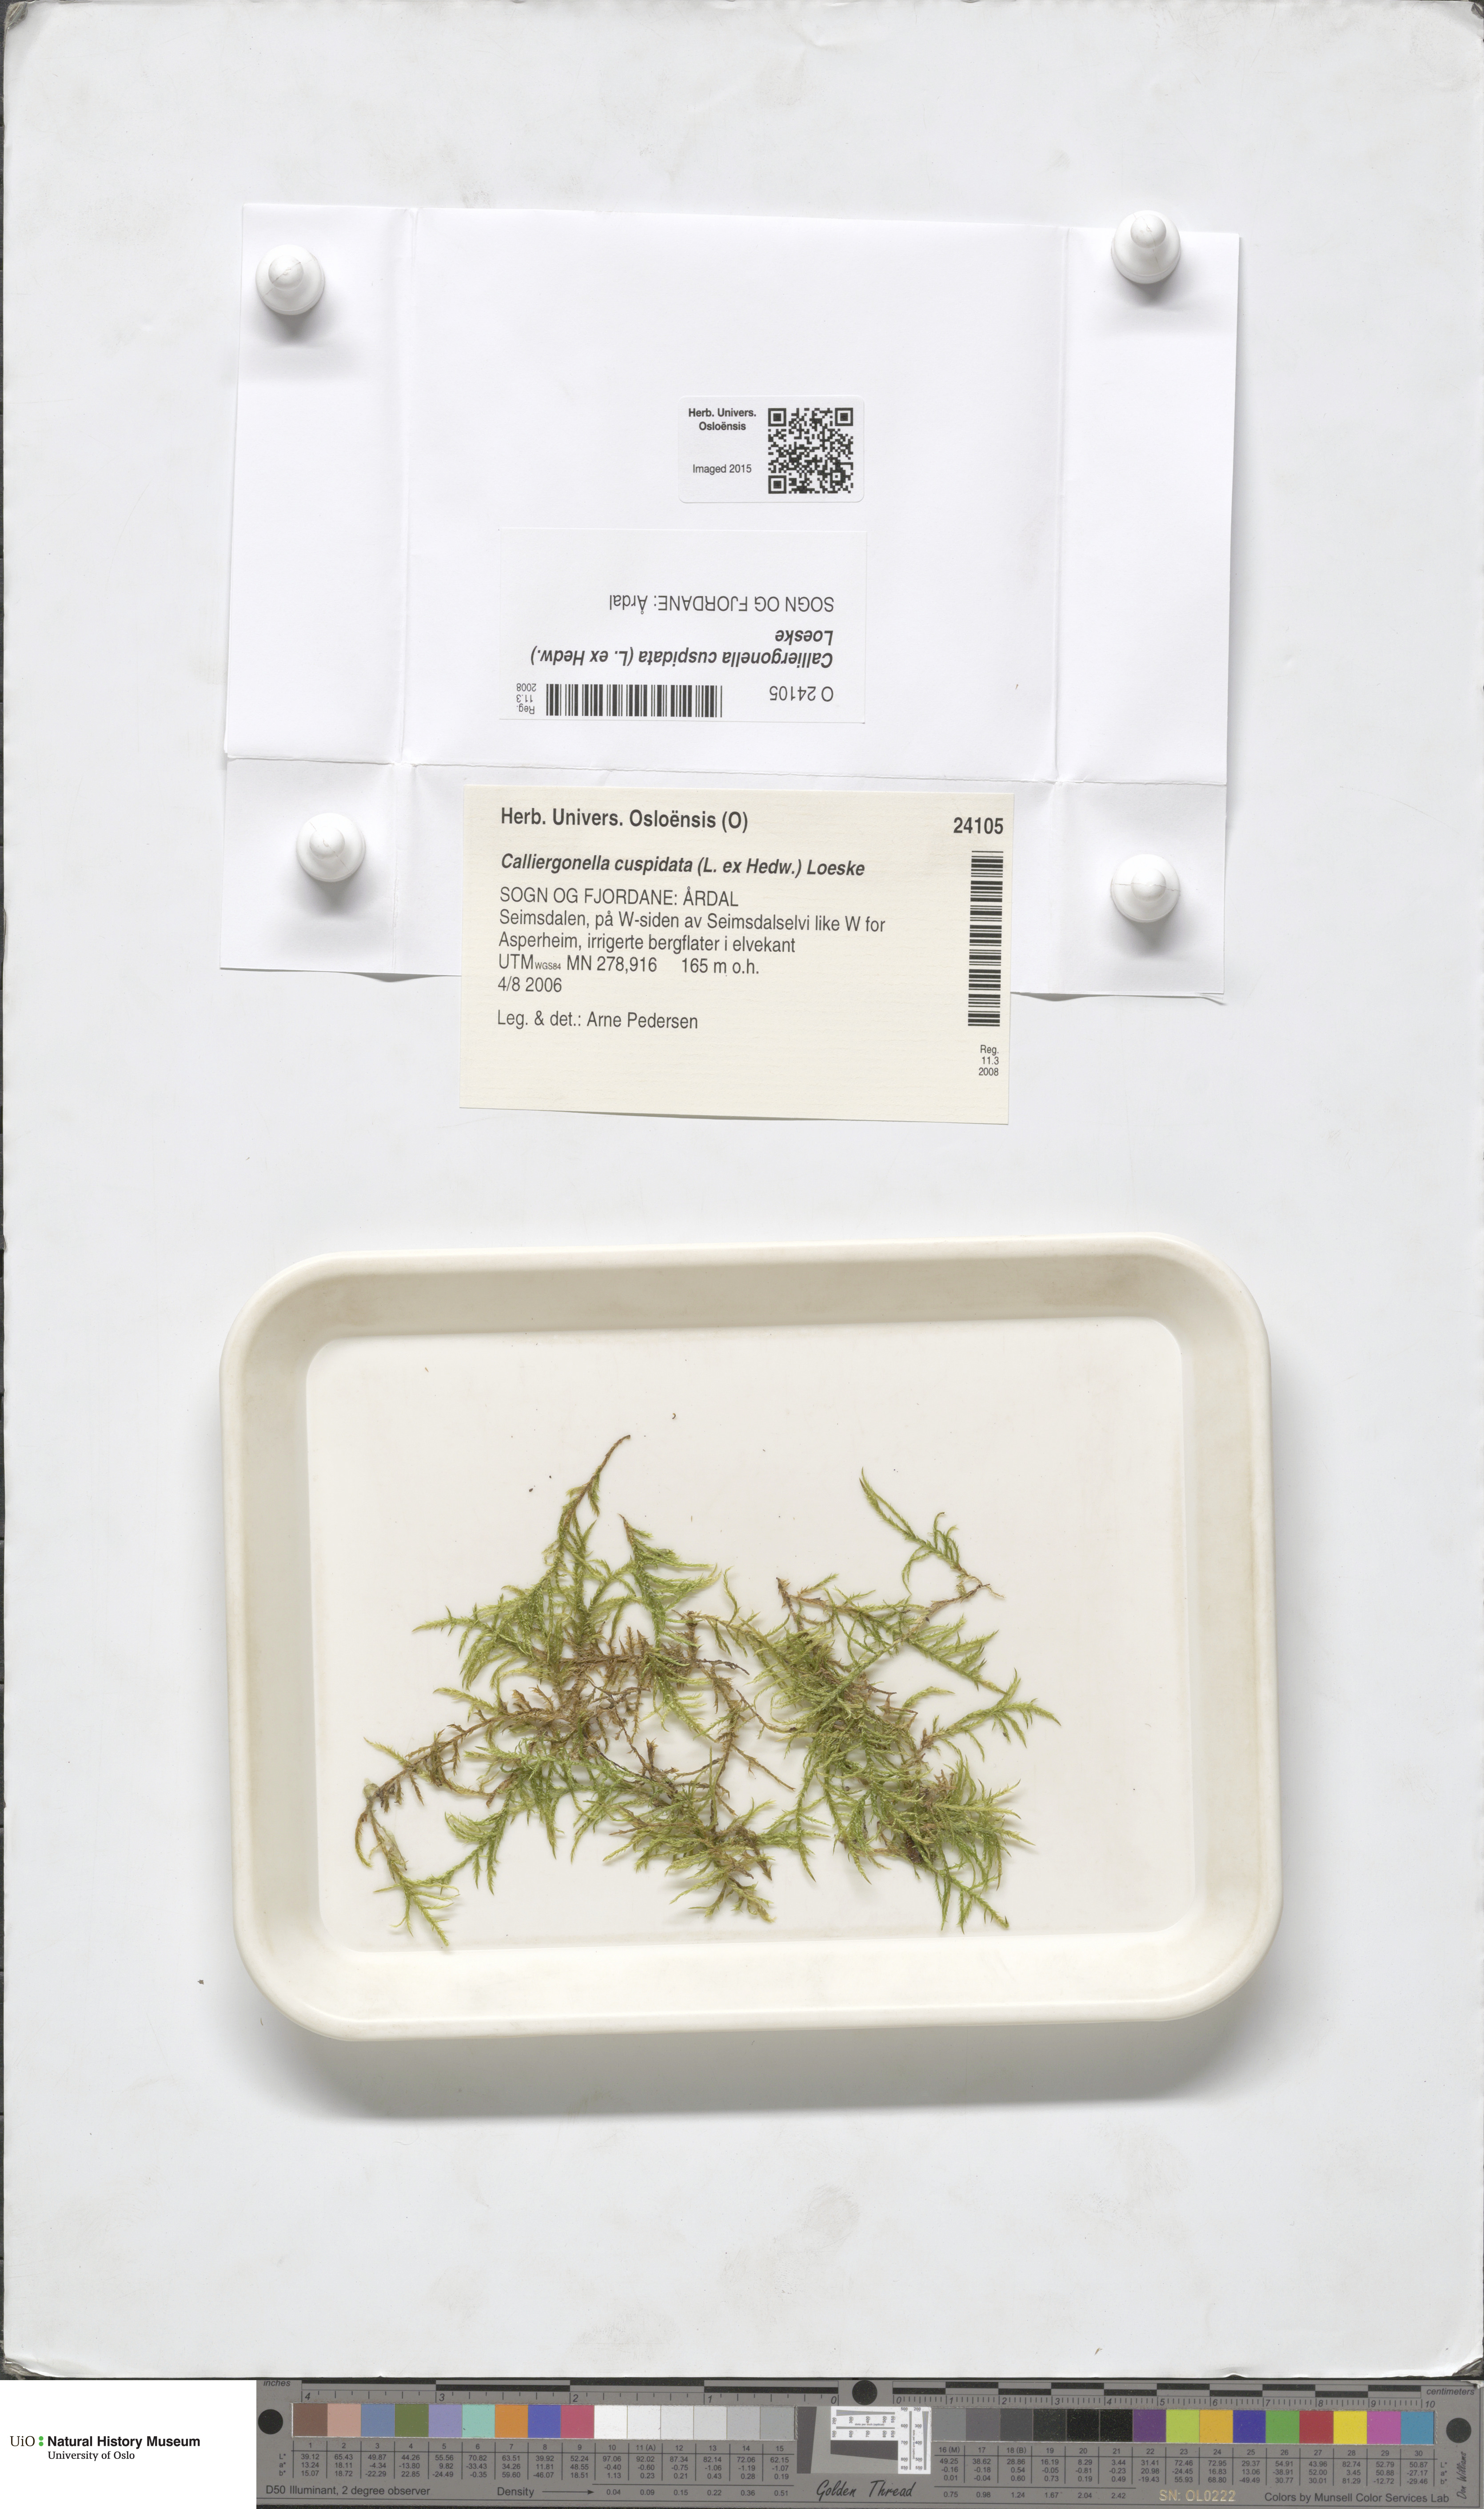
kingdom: Plantae
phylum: Bryophyta
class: Bryopsida
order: Hypnales
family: Pylaisiaceae
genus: Calliergonella
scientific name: Calliergonella cuspidata
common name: Common large wetland moss
